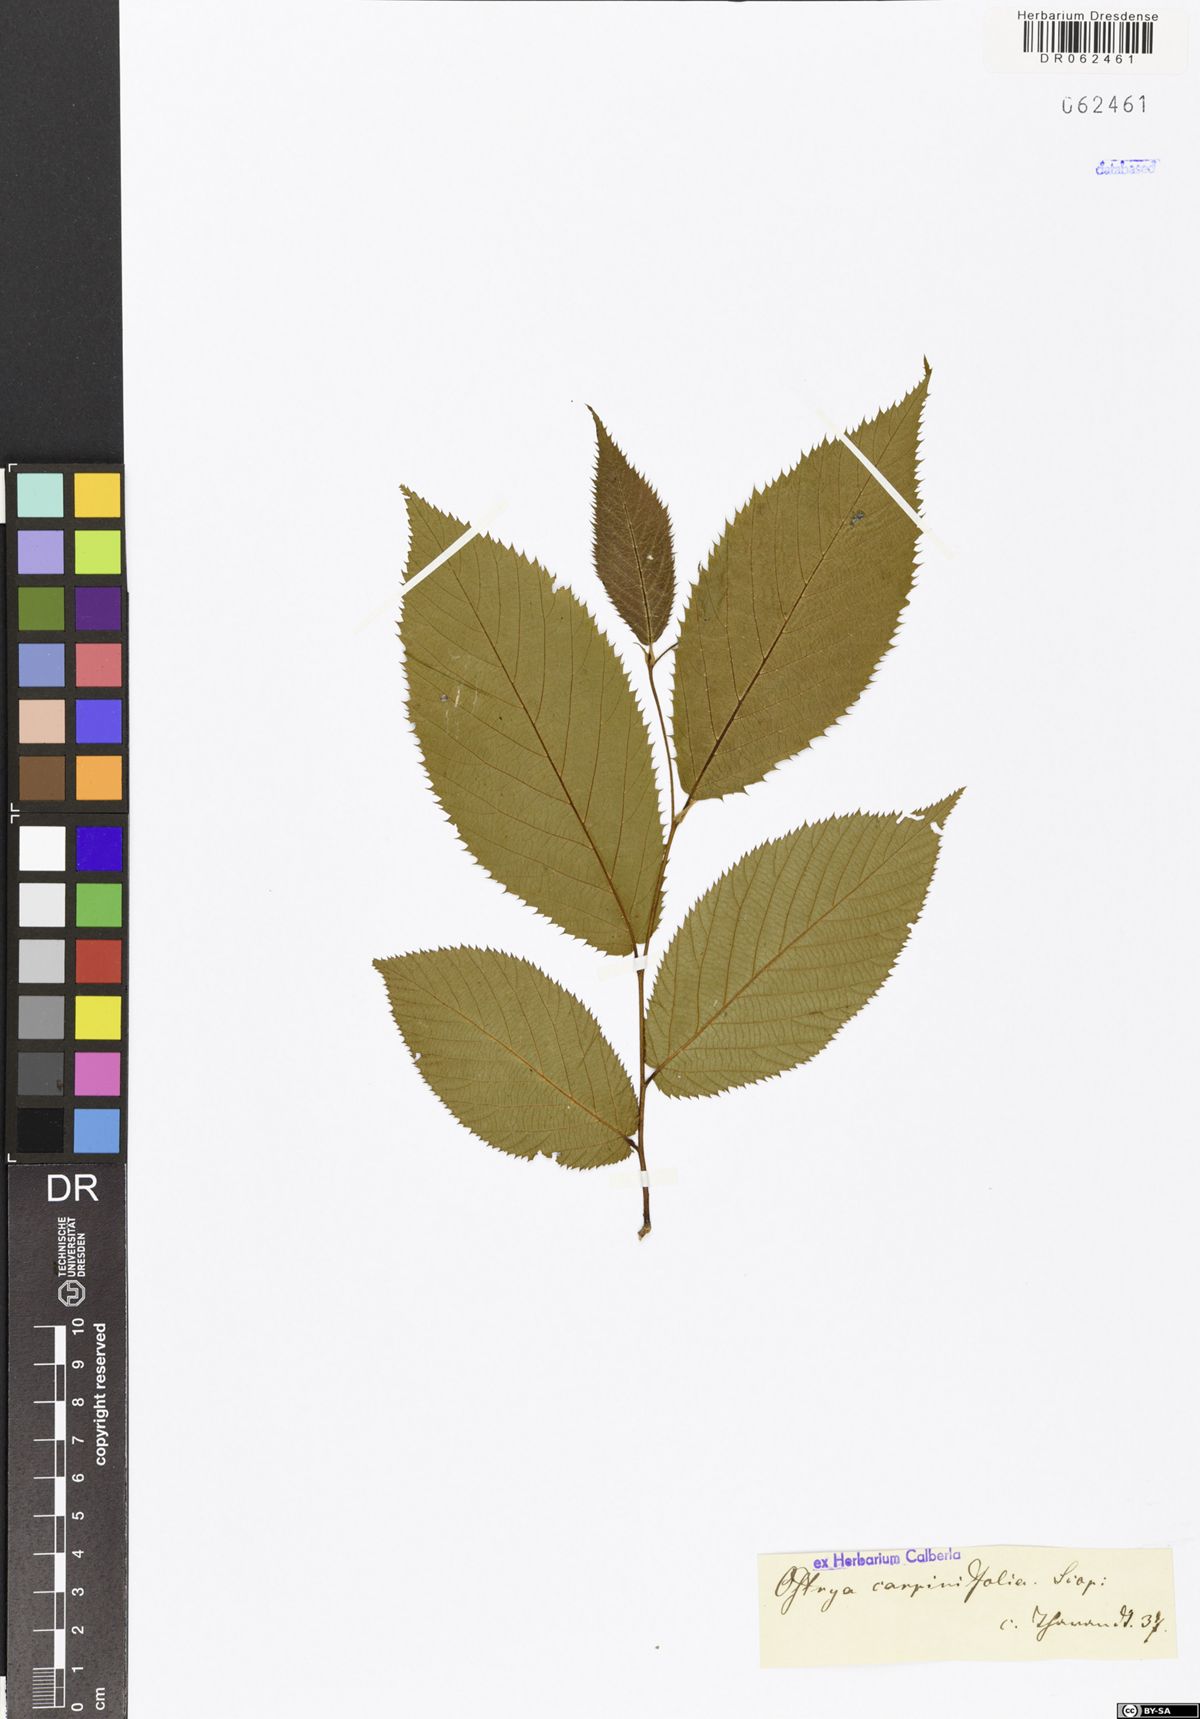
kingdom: Plantae
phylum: Tracheophyta
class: Magnoliopsida
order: Fagales
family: Betulaceae
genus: Ostrya
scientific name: Ostrya carpinifolia
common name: European hop-hornbeam
